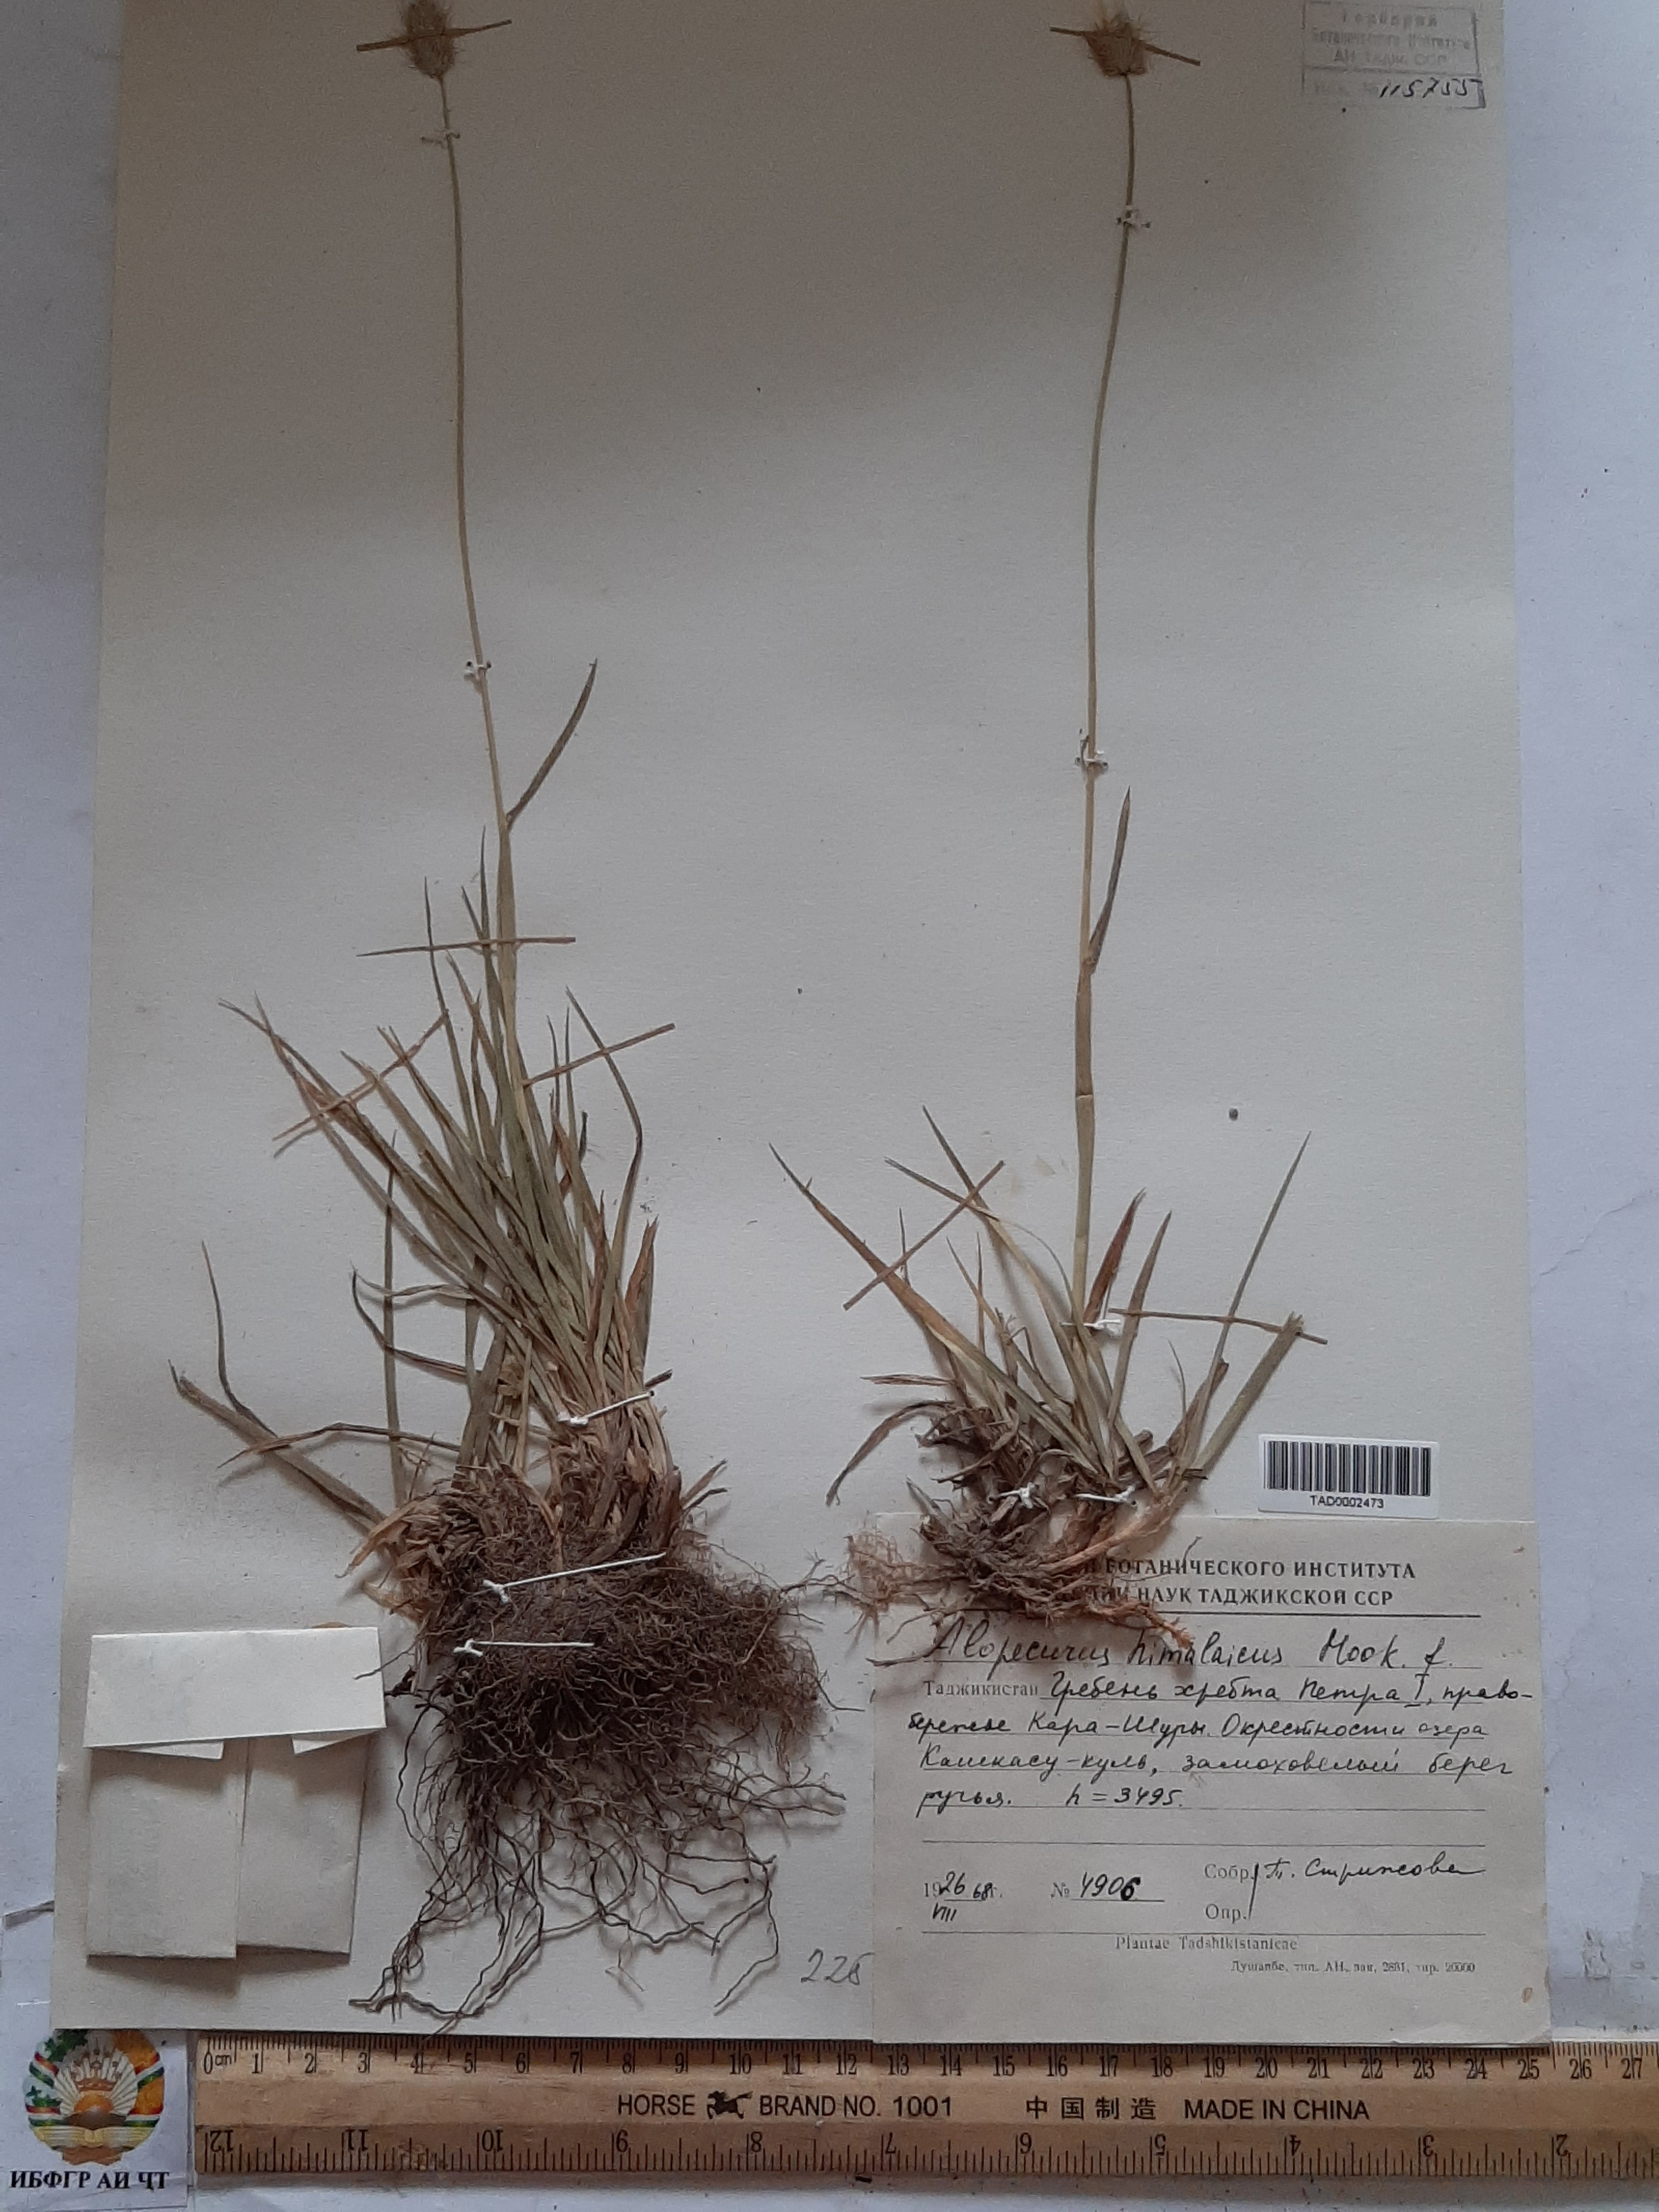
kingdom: Plantae
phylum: Tracheophyta
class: Liliopsida
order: Poales
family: Poaceae
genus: Alopecurus
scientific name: Alopecurus himalaicus
